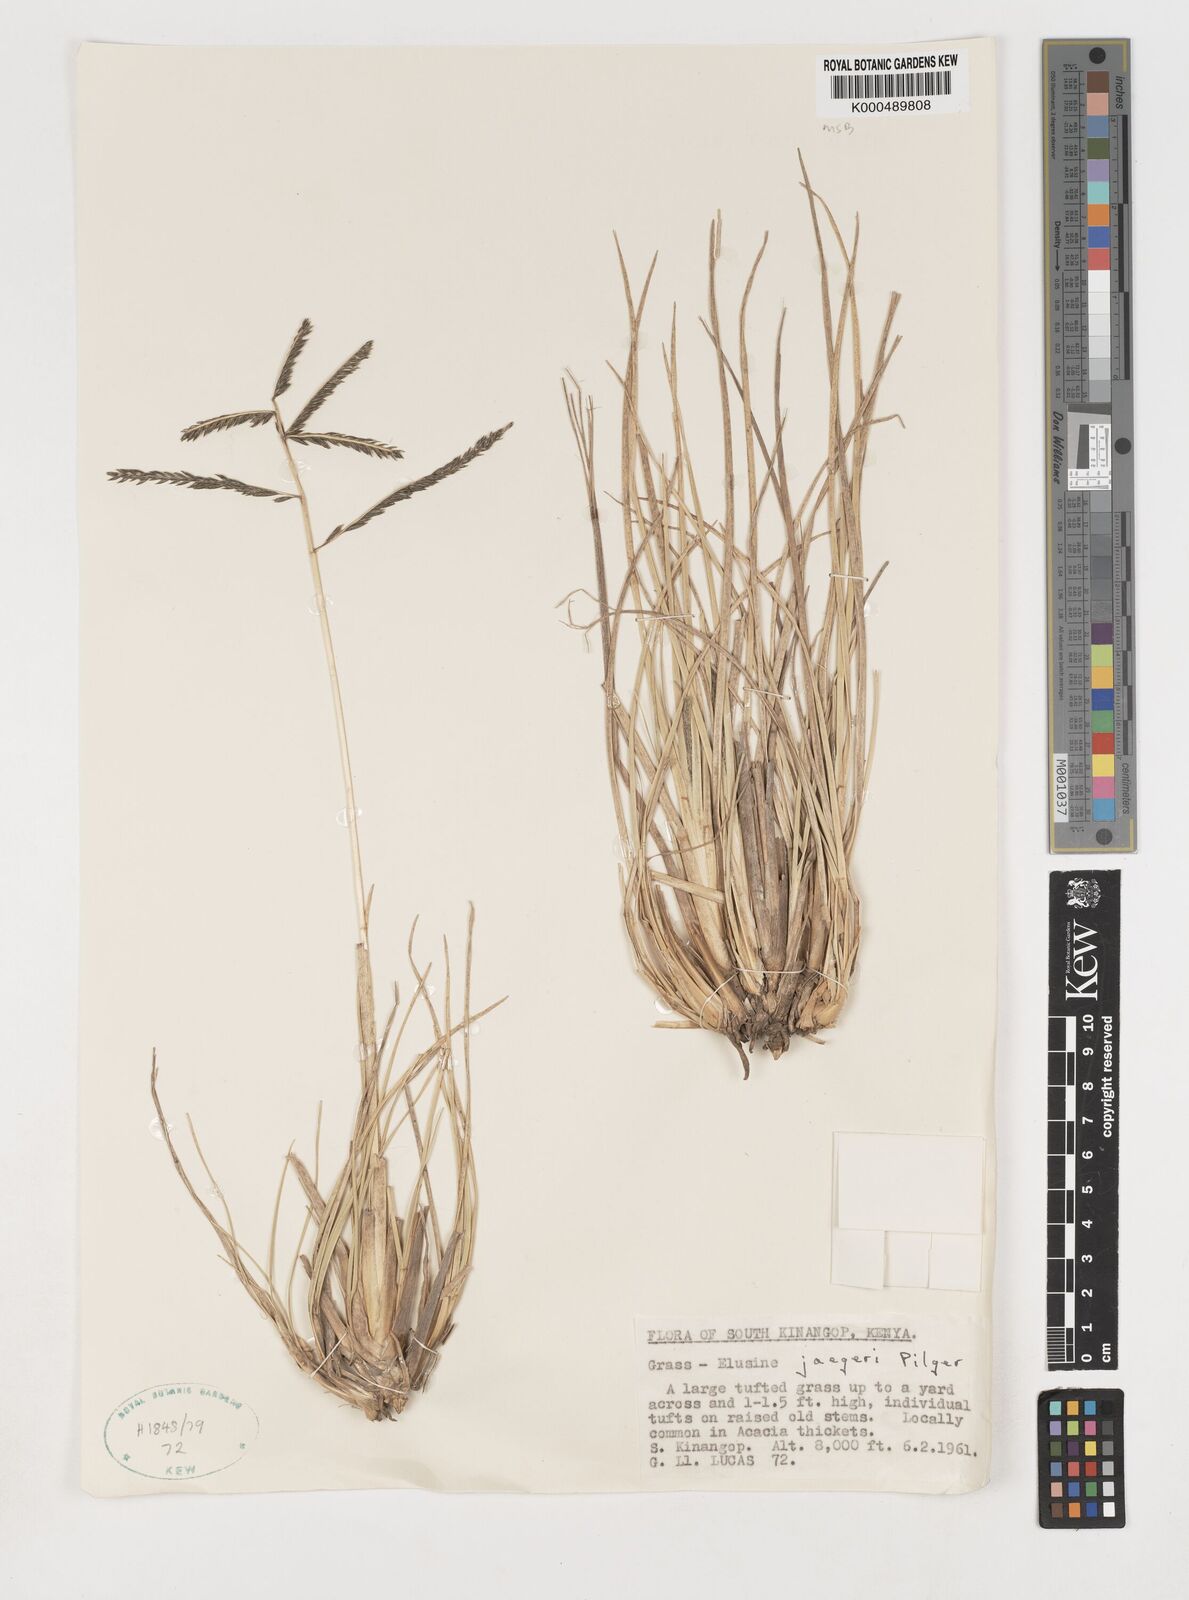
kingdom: Plantae
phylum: Tracheophyta
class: Liliopsida
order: Poales
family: Poaceae
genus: Eleusine
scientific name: Eleusine jaegeri
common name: Manyatta grass
